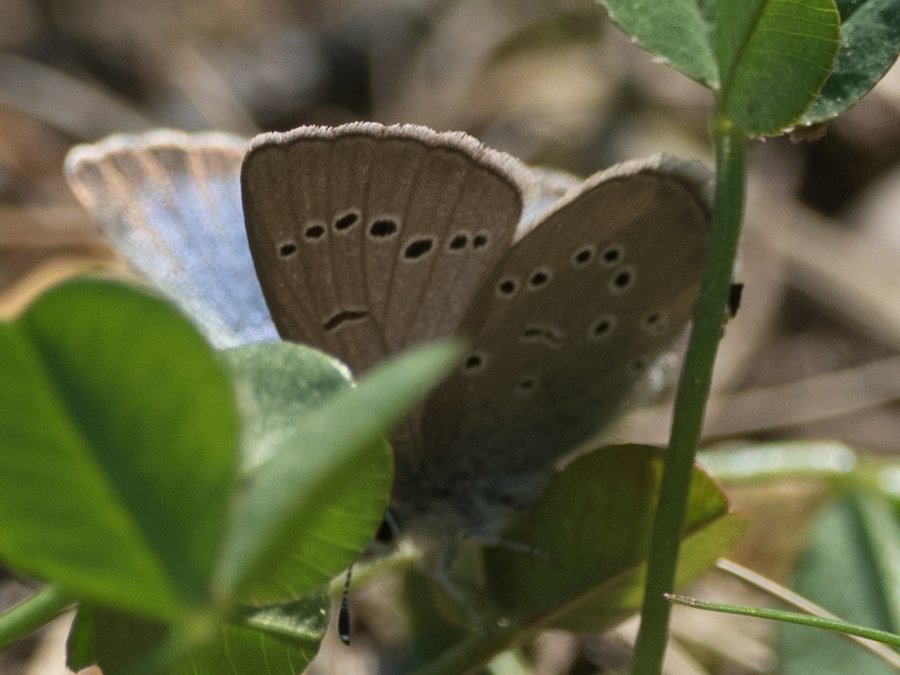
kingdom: Animalia
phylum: Arthropoda
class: Insecta
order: Lepidoptera
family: Lycaenidae
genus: Glaucopsyche
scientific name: Glaucopsyche lygdamus
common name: Silvery Blue
